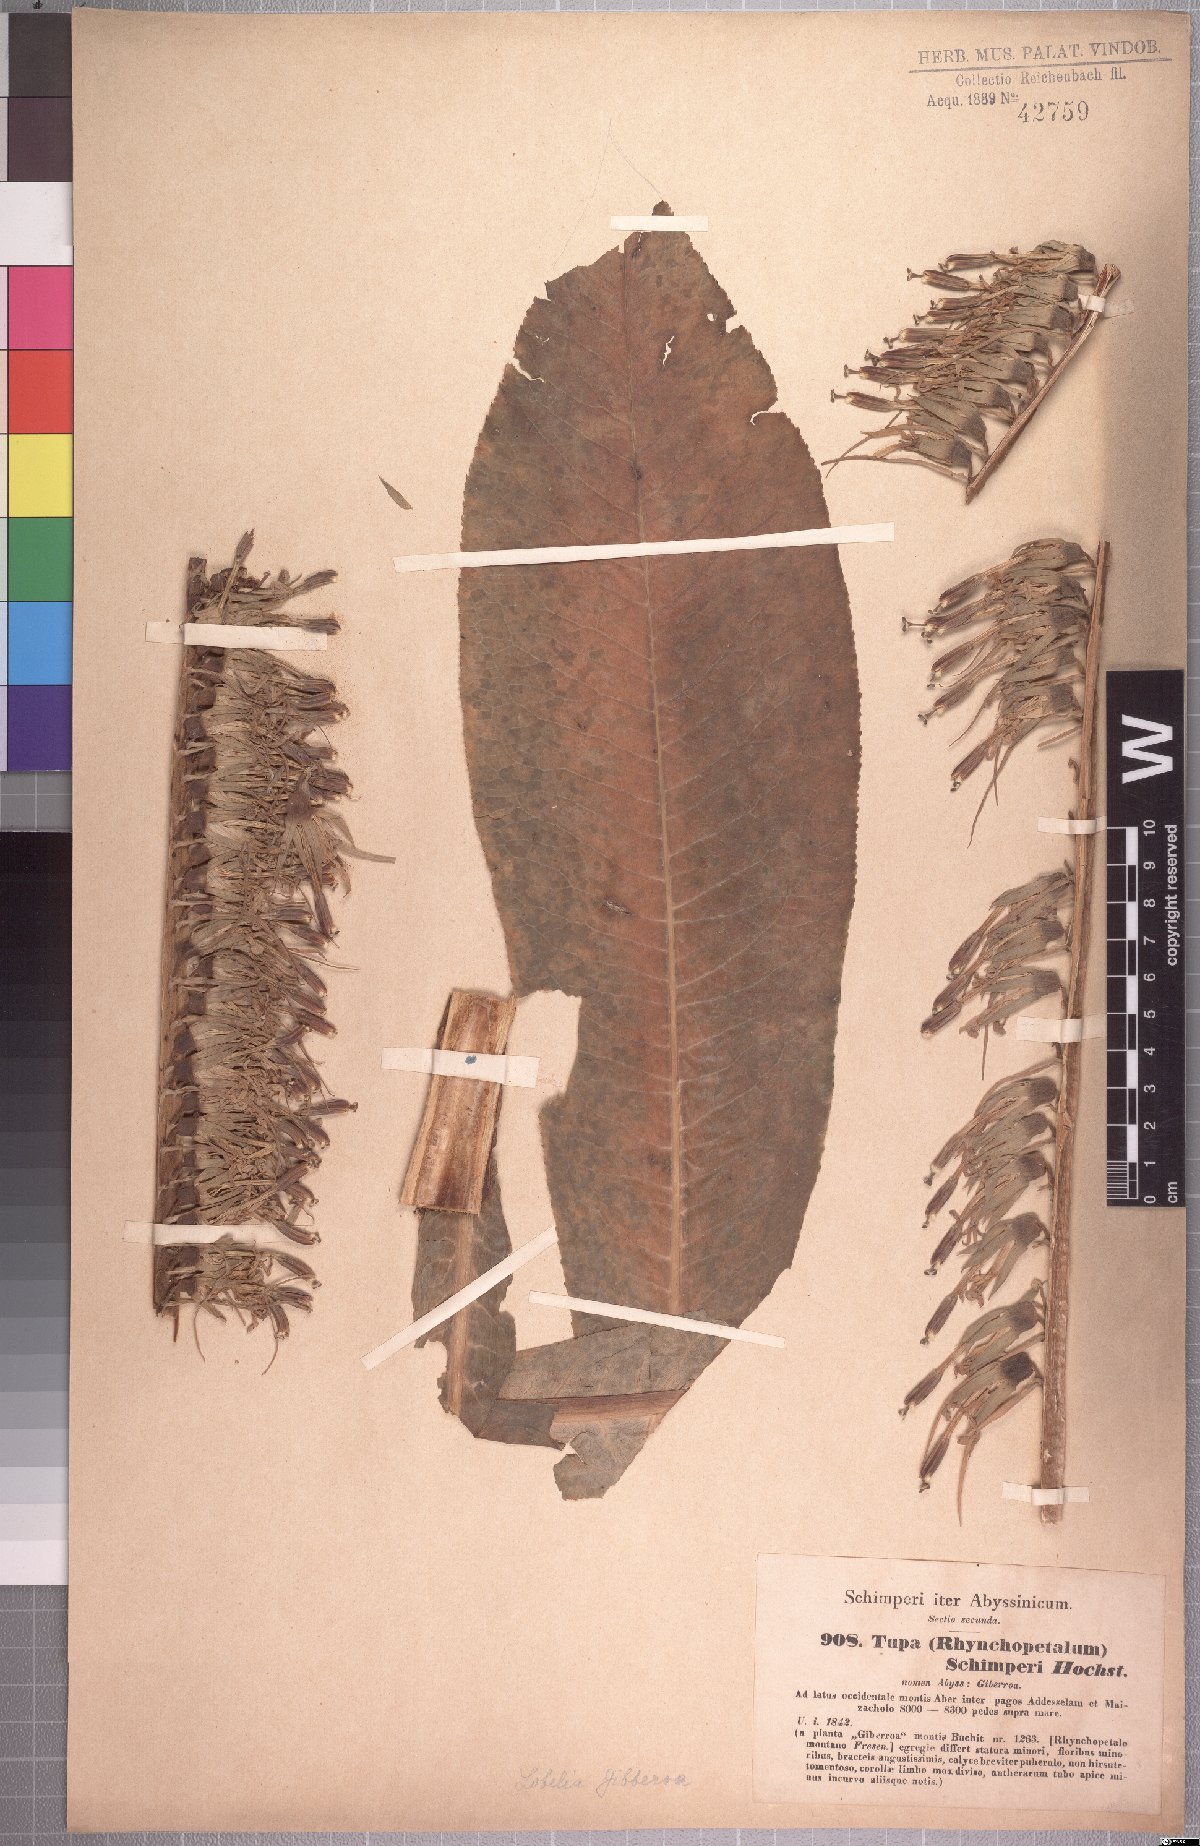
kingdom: Plantae
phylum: Tracheophyta
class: Magnoliopsida
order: Asterales
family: Campanulaceae
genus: Lobelia
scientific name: Lobelia giberroa
